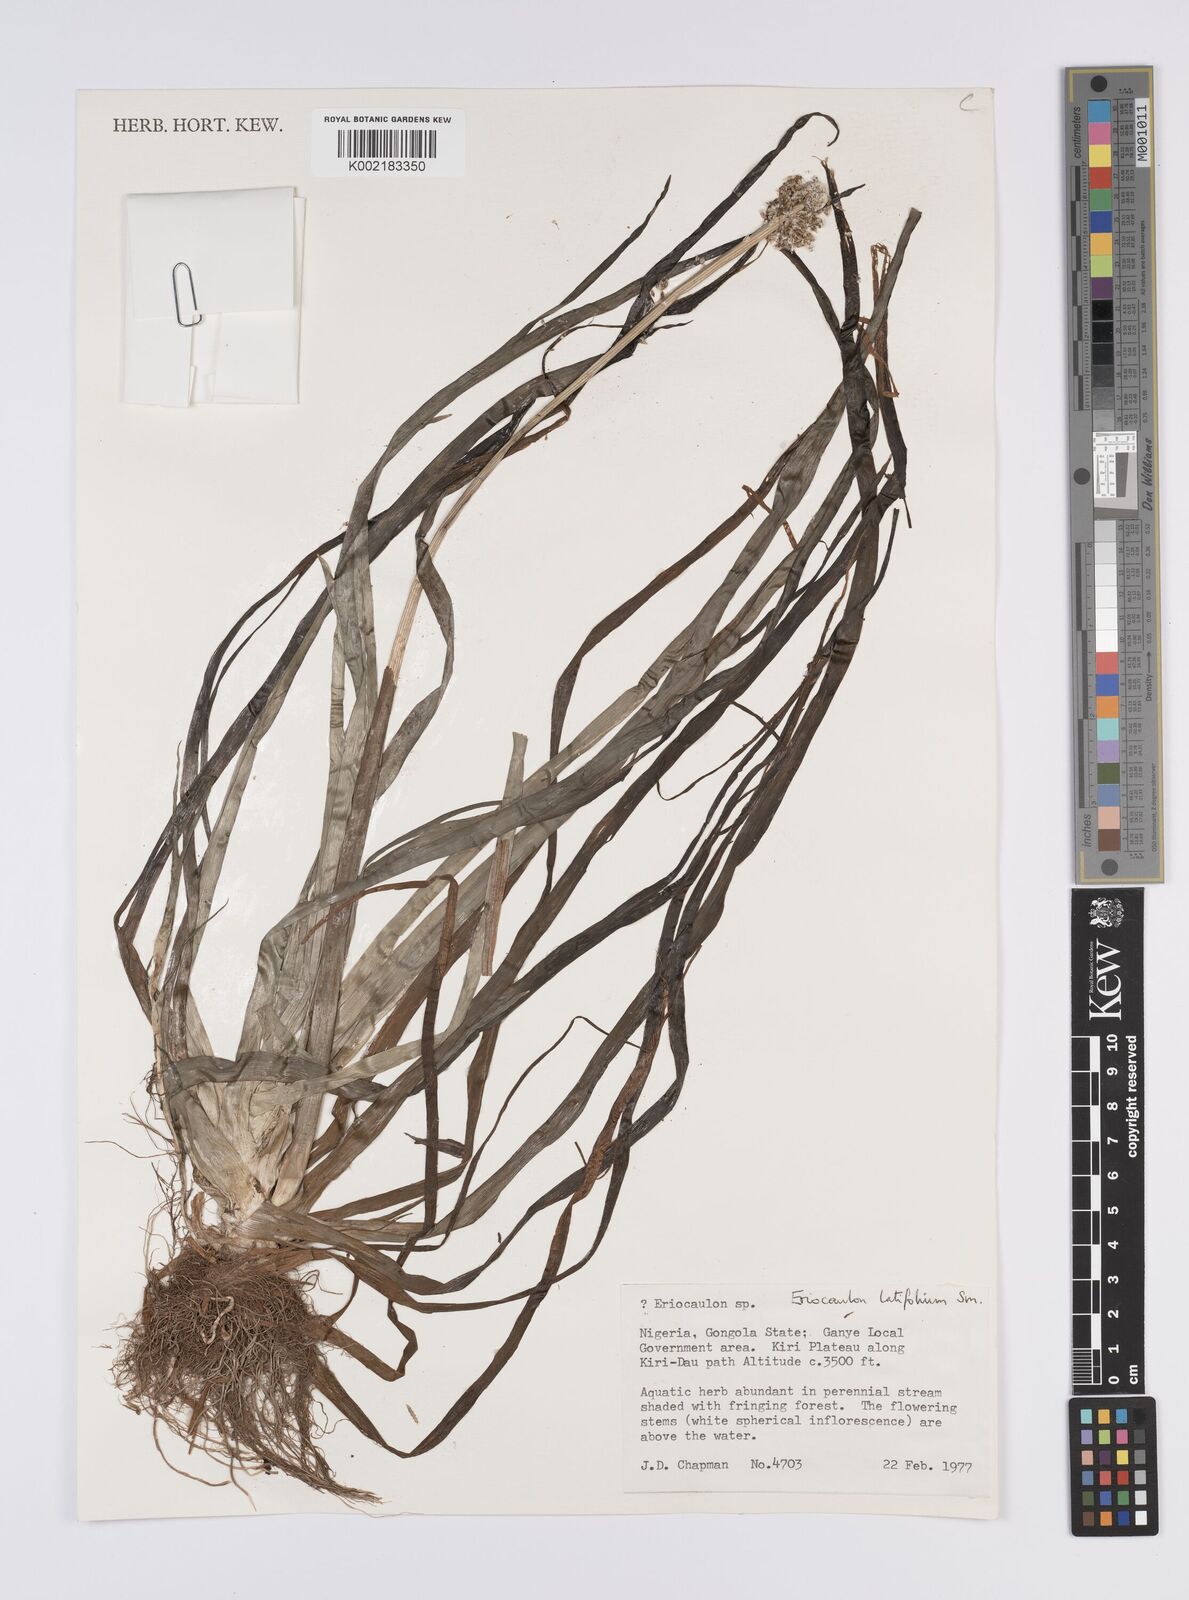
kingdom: Plantae
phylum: Tracheophyta
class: Liliopsida
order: Poales
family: Eriocaulaceae
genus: Eriocaulon
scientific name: Eriocaulon latifolium
